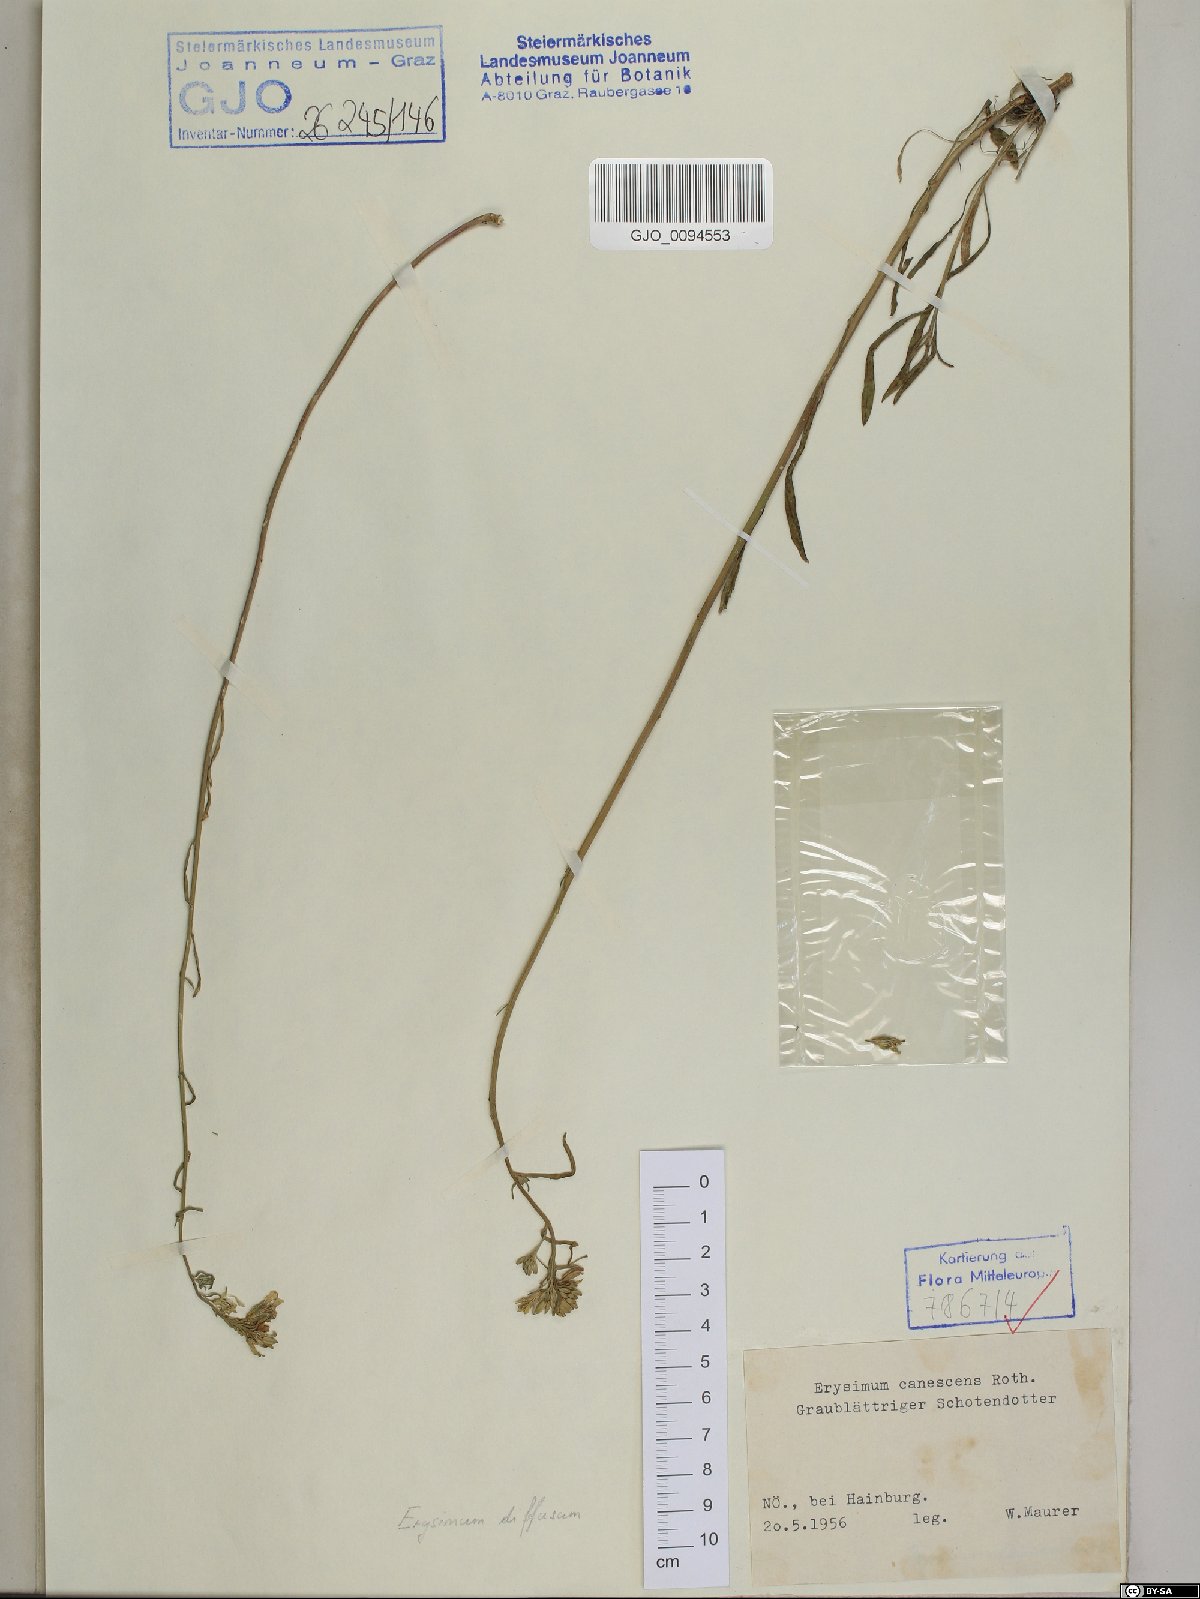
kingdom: Plantae
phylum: Tracheophyta
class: Magnoliopsida
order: Brassicales
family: Brassicaceae
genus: Erysimum
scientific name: Erysimum canescens
